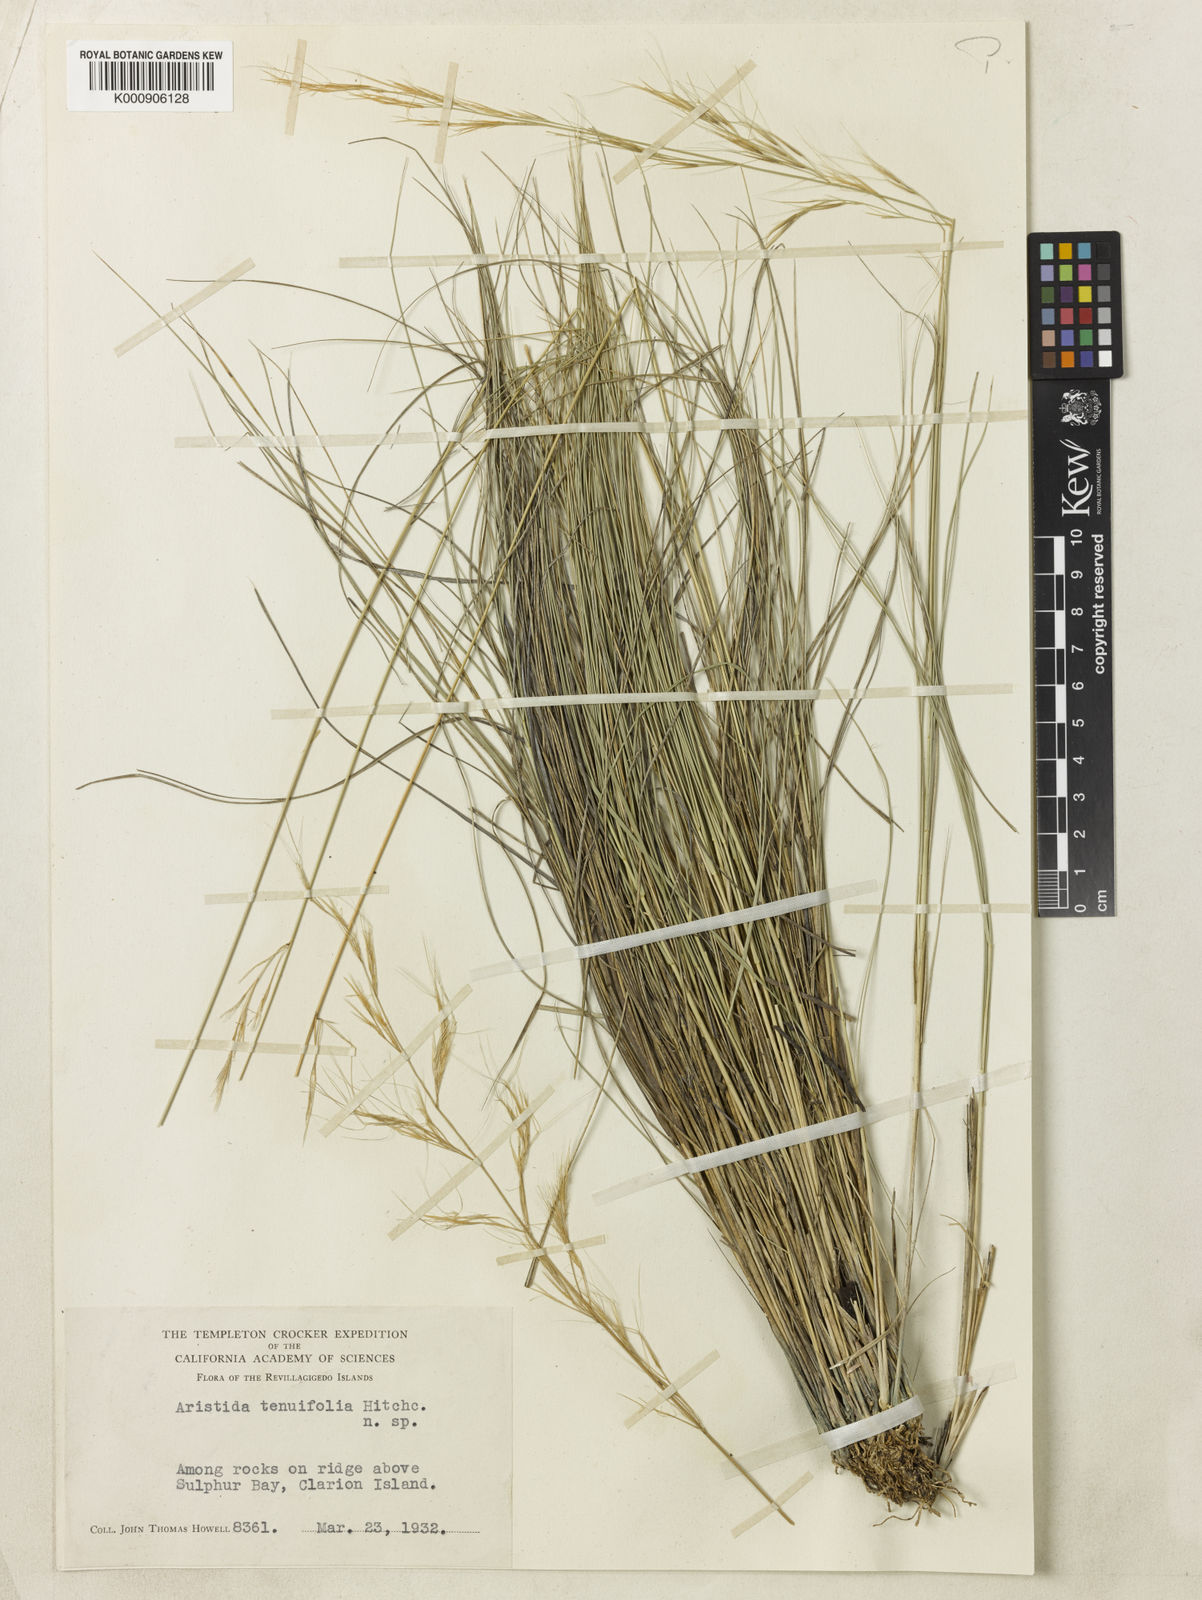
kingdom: Plantae
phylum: Tracheophyta
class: Liliopsida
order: Poales
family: Poaceae
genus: Aristida
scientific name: Aristida tenuifolia
